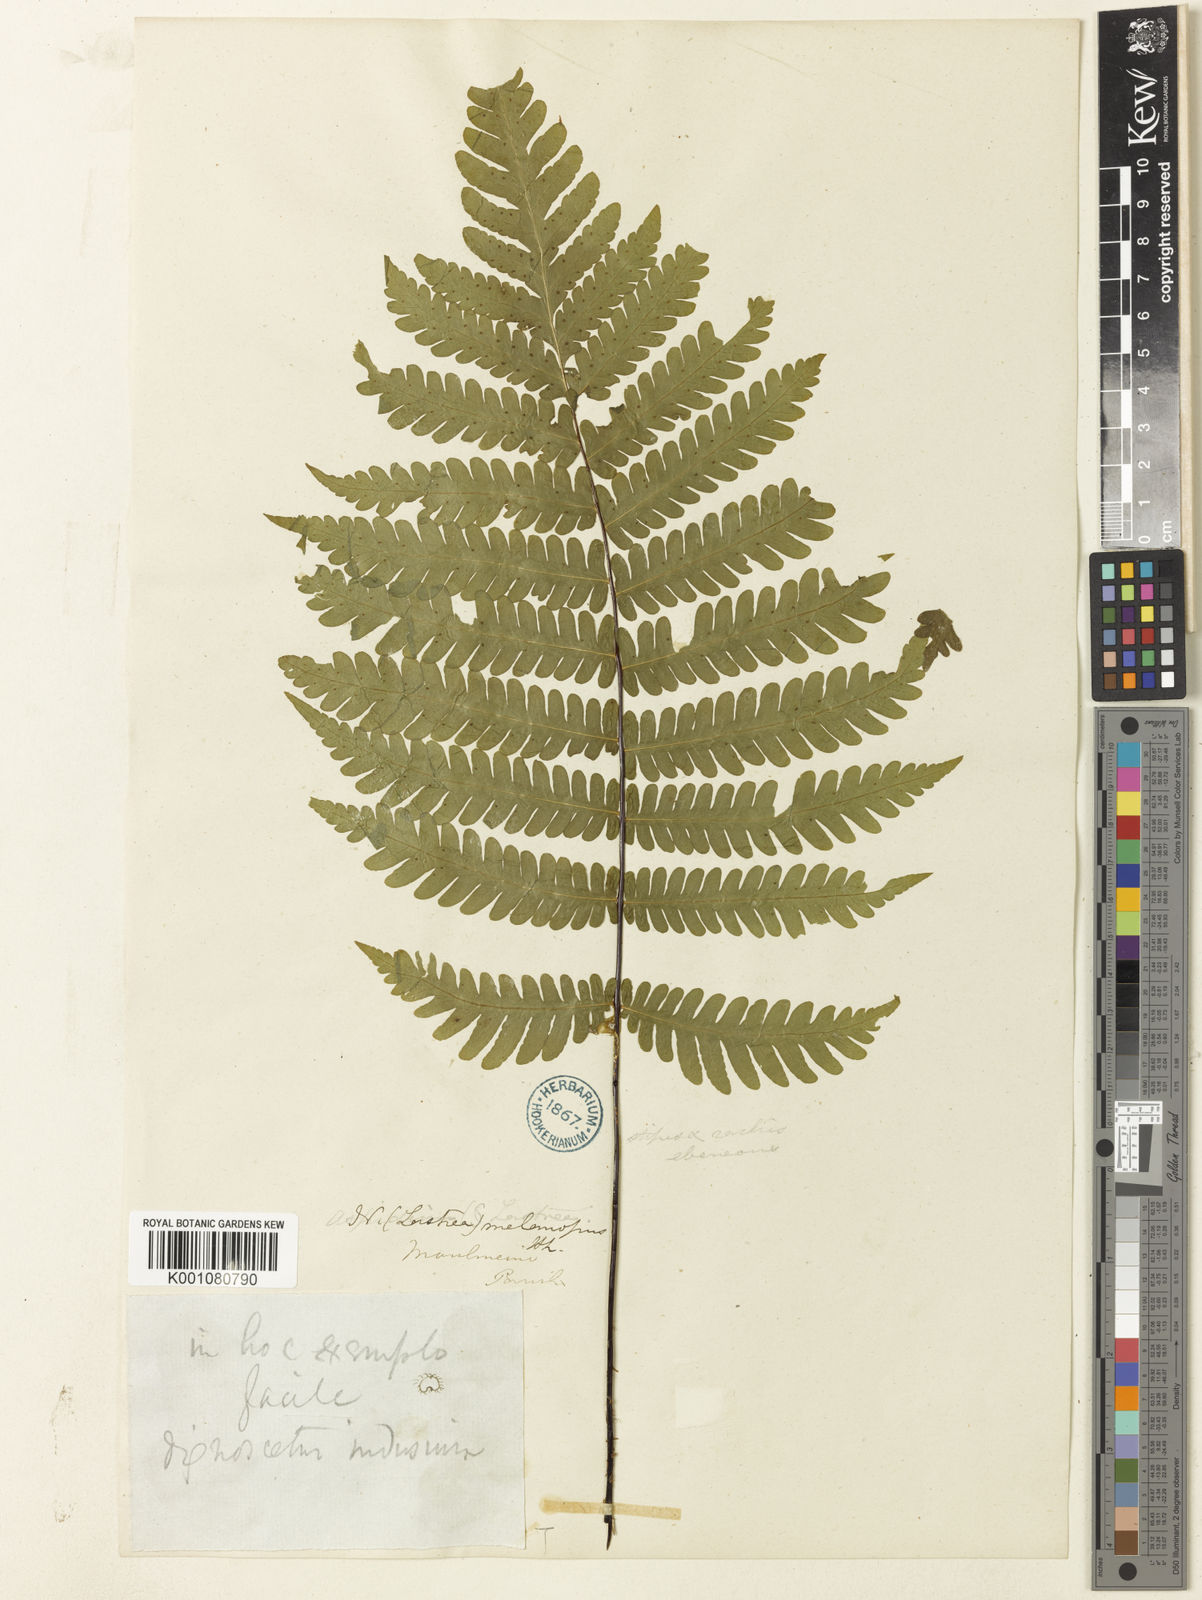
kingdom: Plantae
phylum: Tracheophyta
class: Polypodiopsida
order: Polypodiales
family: Tectariaceae
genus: Tectaria
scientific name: Tectaria sagenioides
